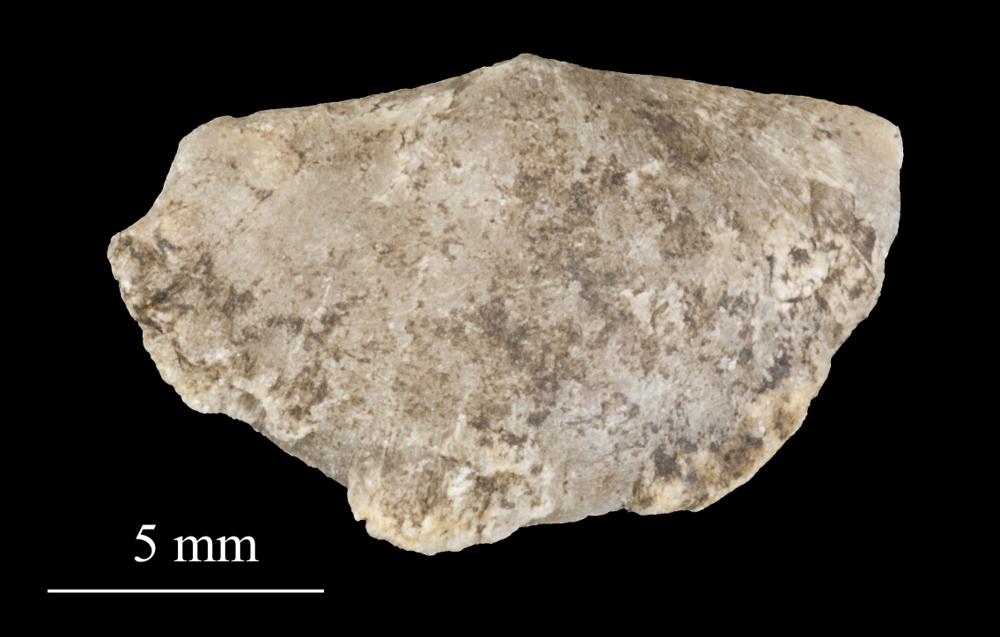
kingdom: Animalia
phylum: Brachiopoda
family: Sowerbyellidae
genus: Sowerbyella
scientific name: Sowerbyella
